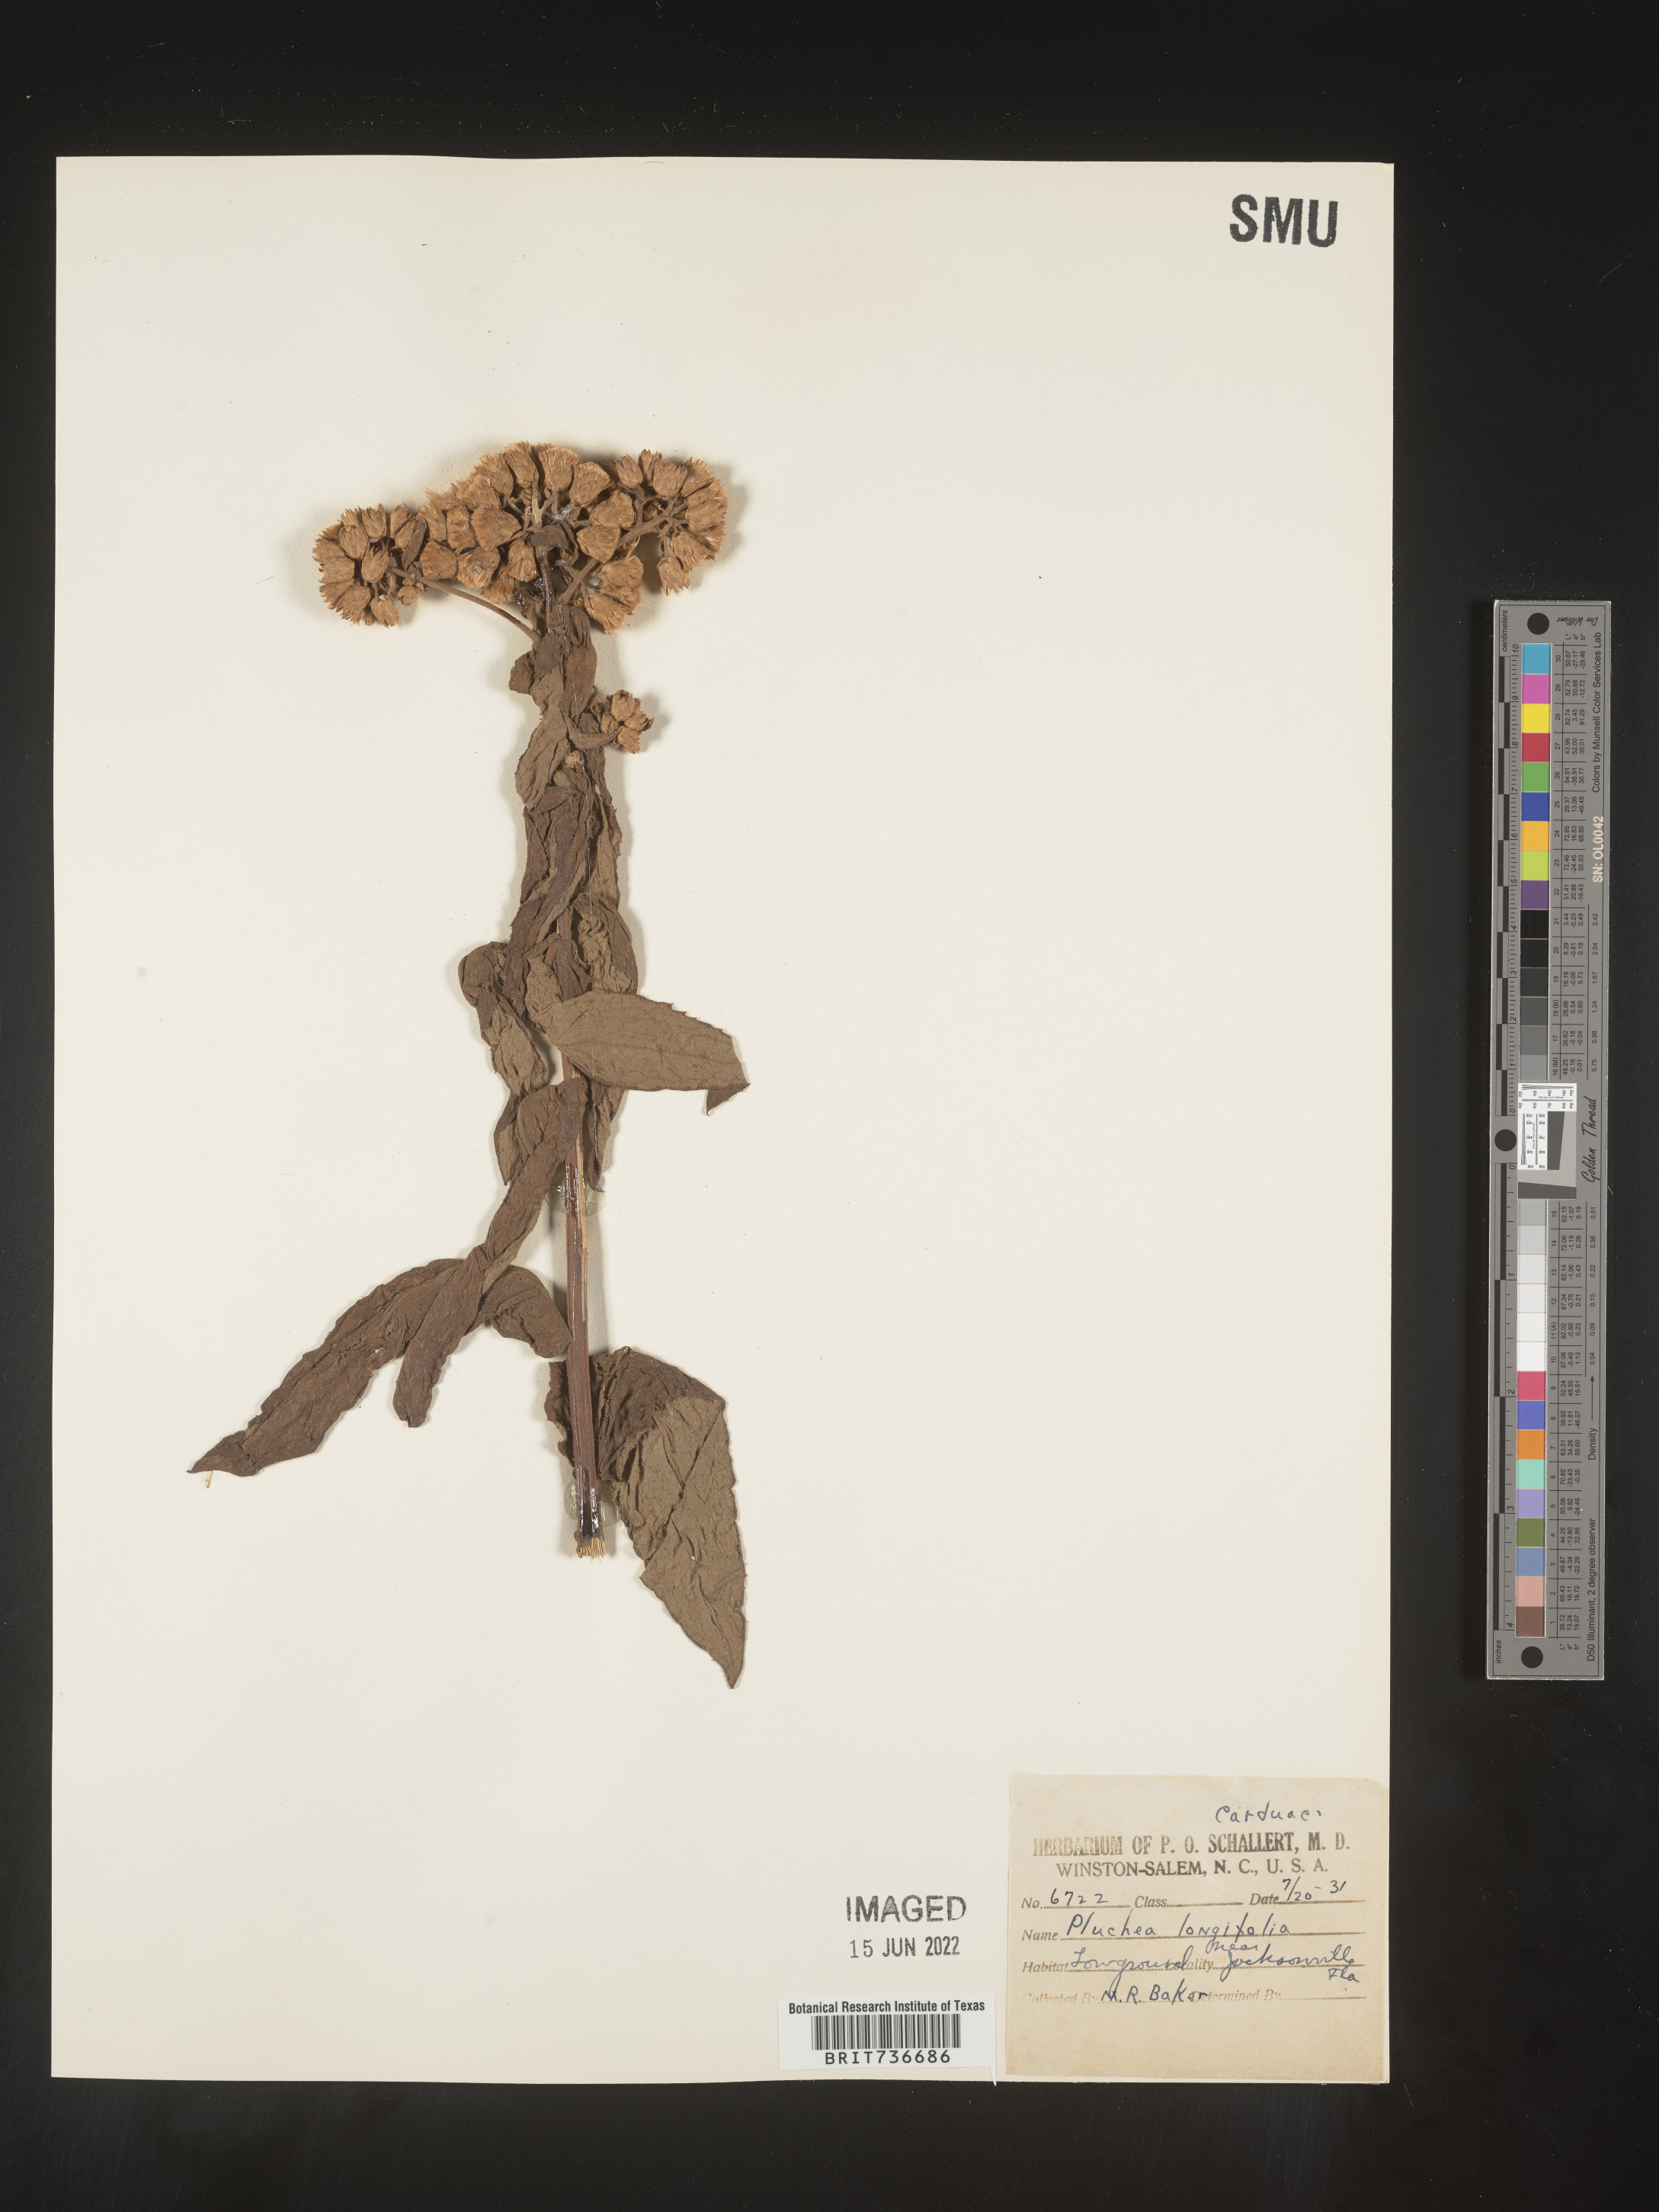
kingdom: Plantae
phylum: Tracheophyta
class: Magnoliopsida
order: Asterales
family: Asteraceae
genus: Pluchea
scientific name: Pluchea longifolia
